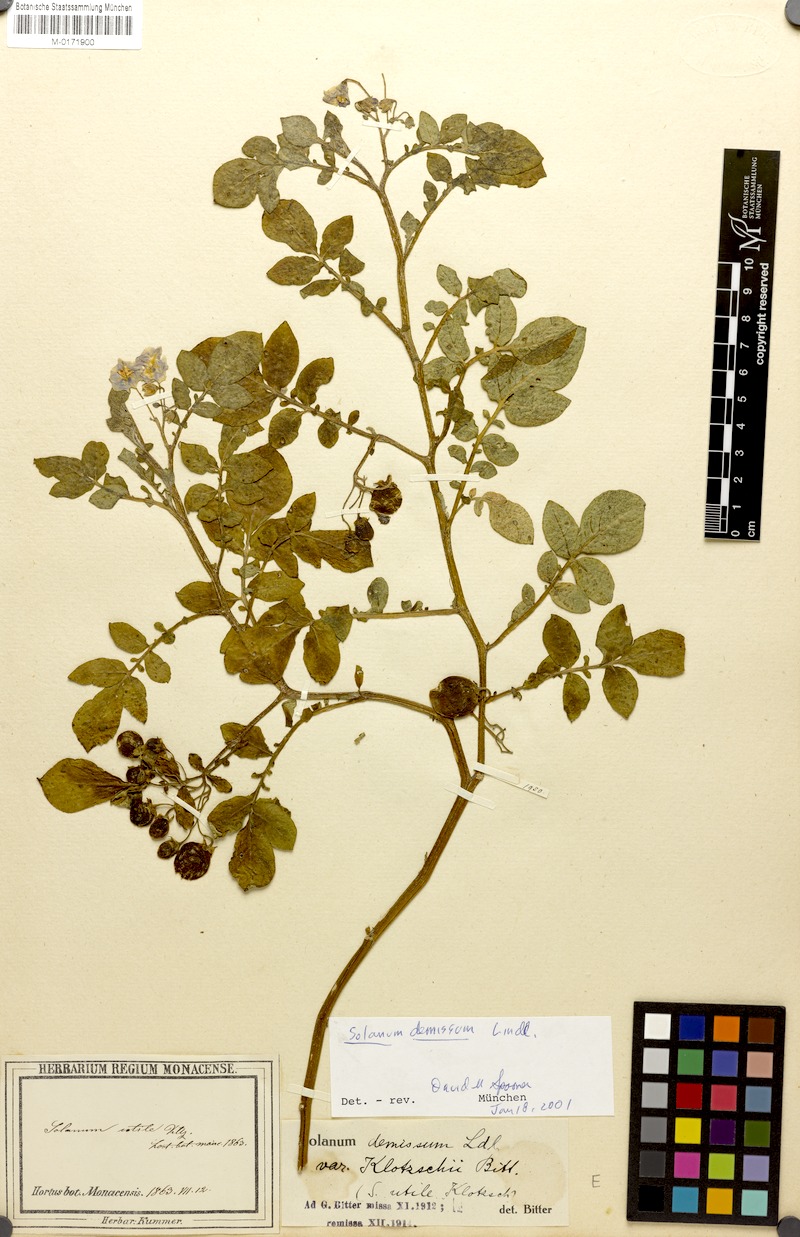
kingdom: Plantae
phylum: Tracheophyta
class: Magnoliopsida
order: Solanales
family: Solanaceae
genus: Solanum
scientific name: Solanum demissum
